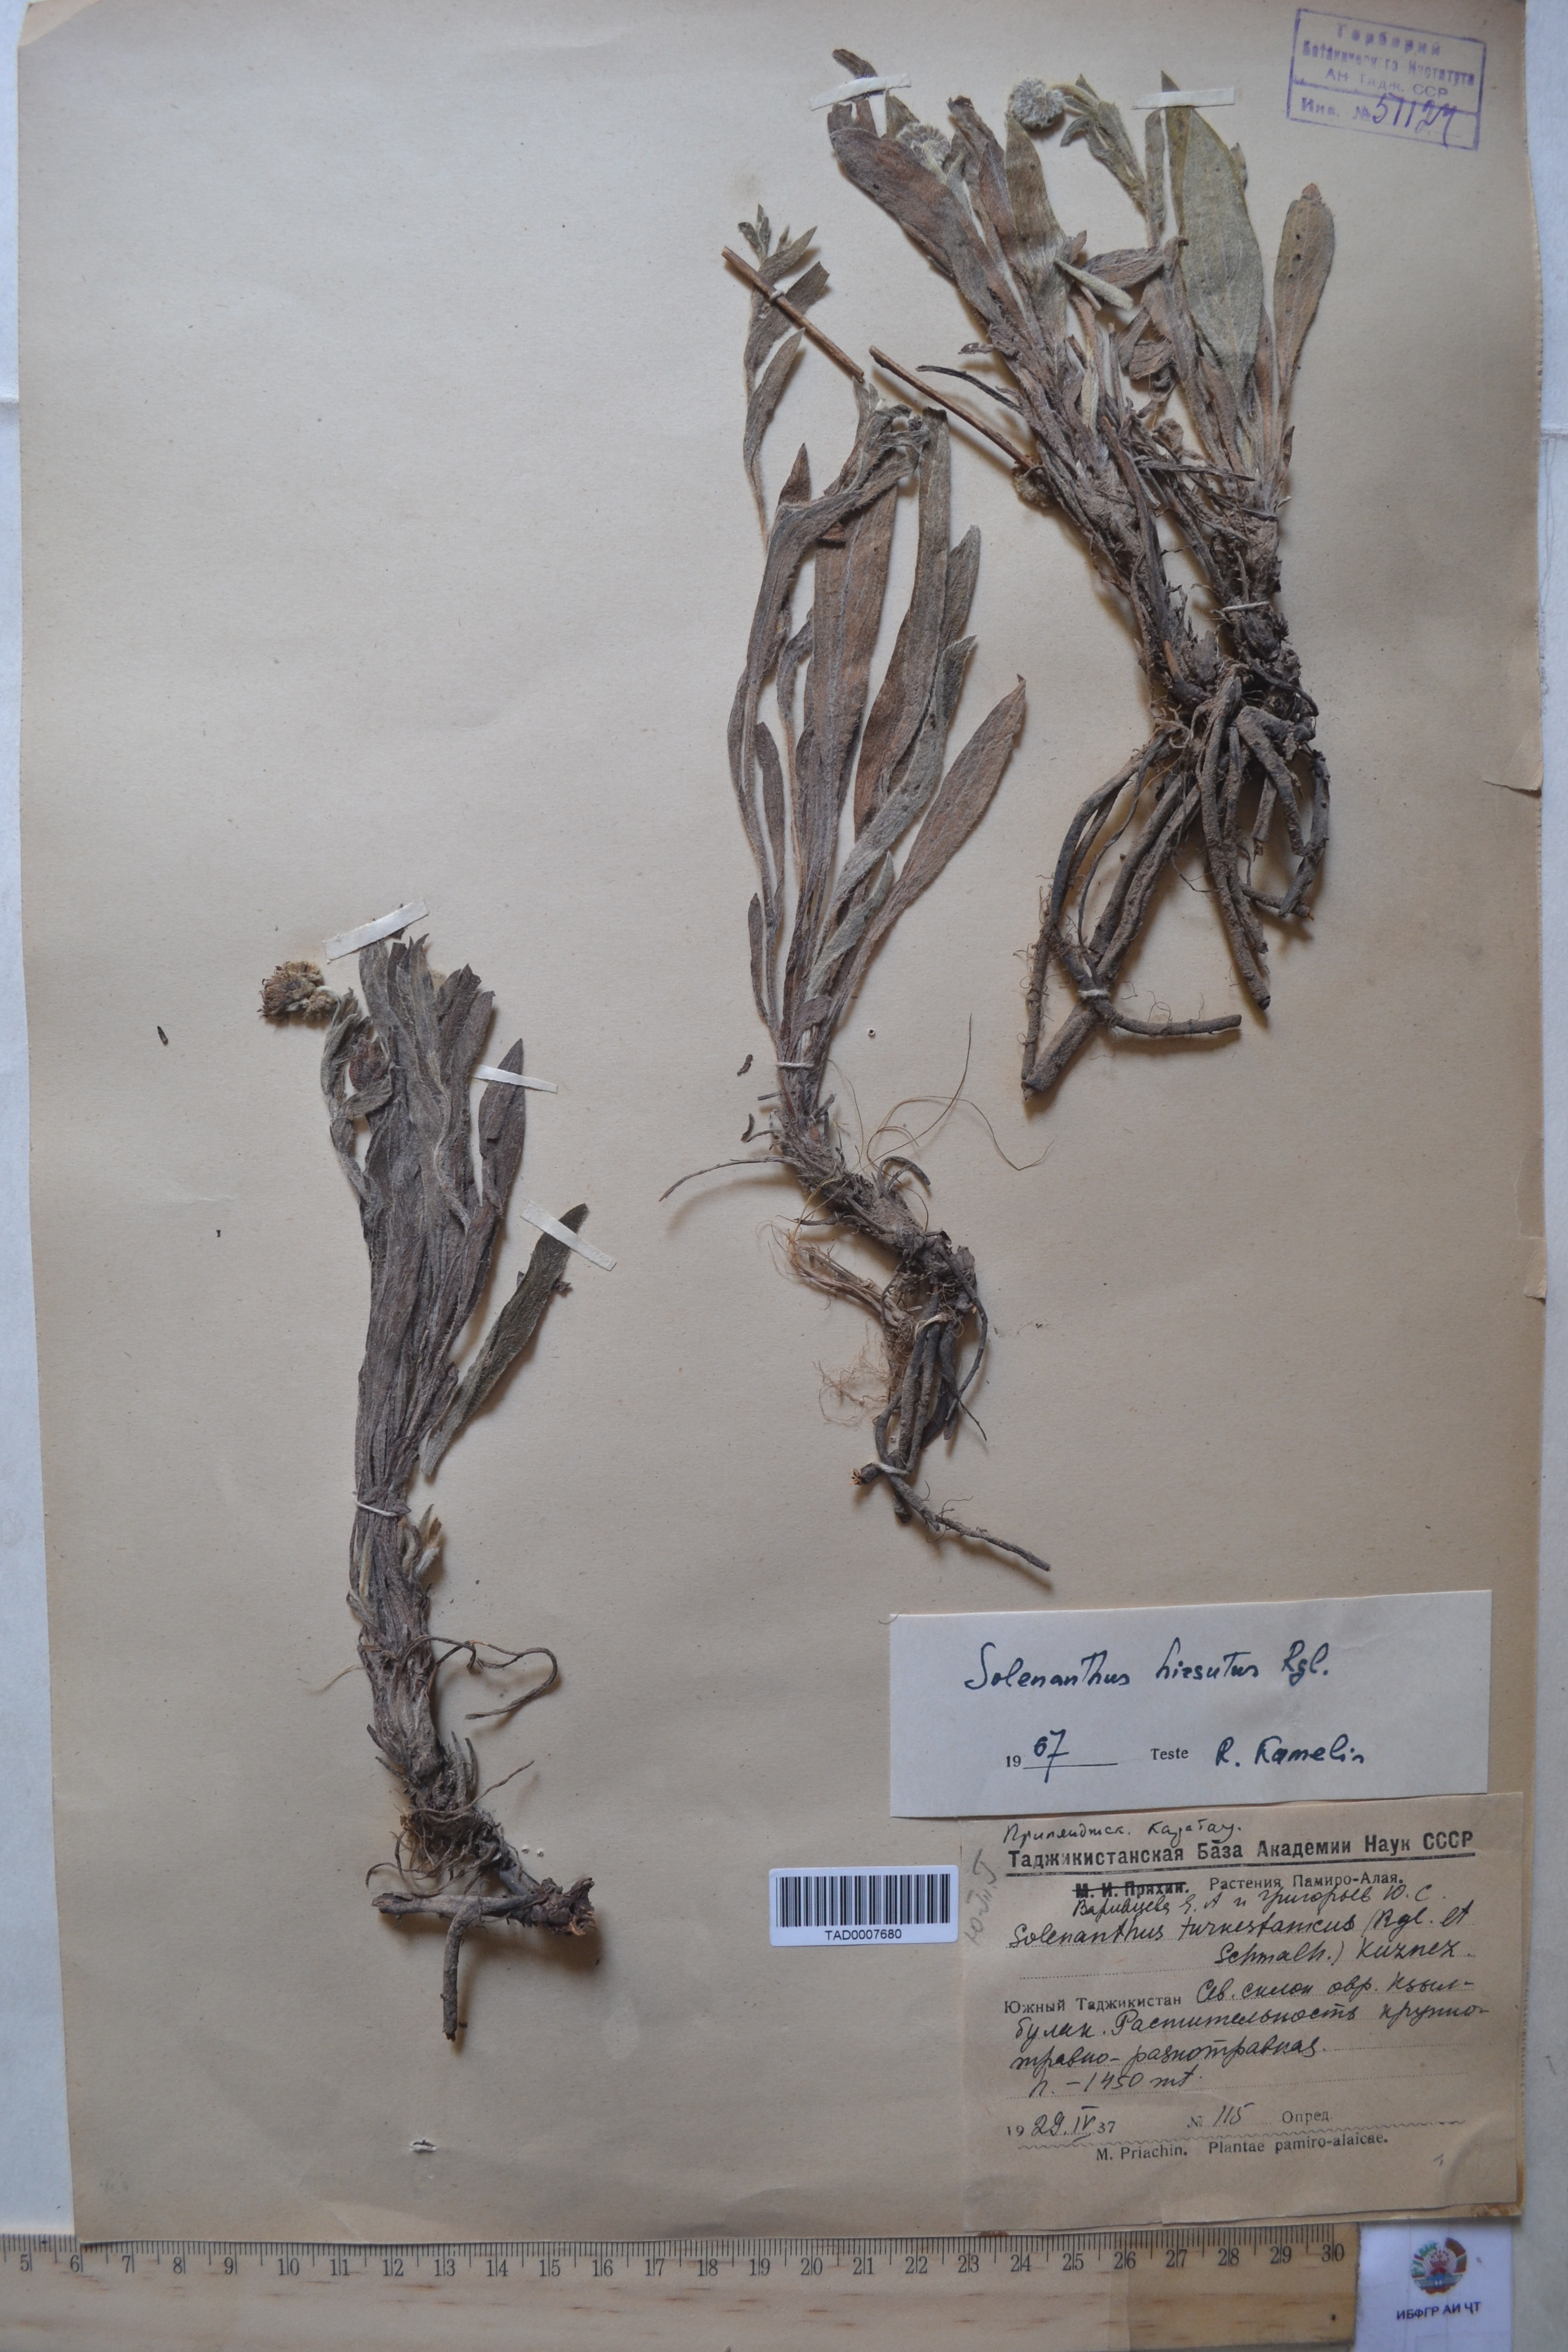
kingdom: Plantae
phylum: Tracheophyta
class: Magnoliopsida
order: Boraginales
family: Boraginaceae
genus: Solenanthus
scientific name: Solenanthus hirsutus
